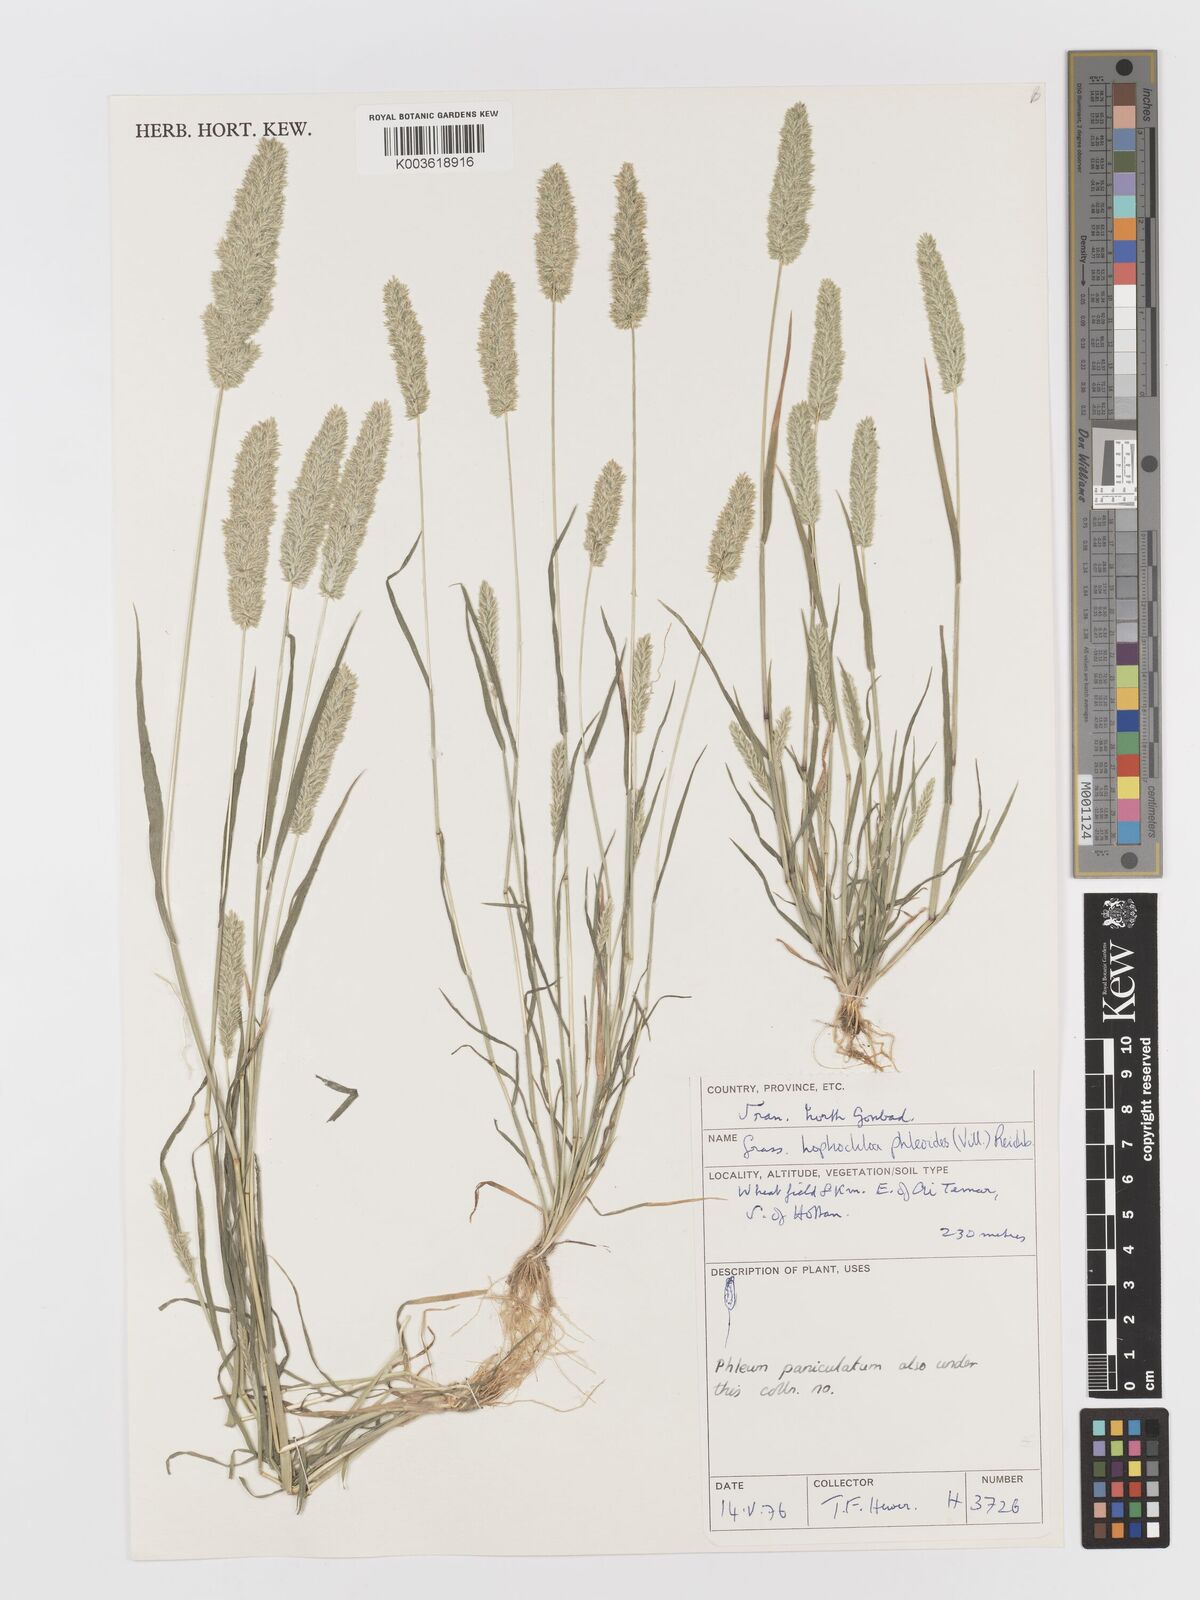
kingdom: Plantae
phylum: Tracheophyta
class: Liliopsida
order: Poales
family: Poaceae
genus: Rostraria
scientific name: Rostraria cristata
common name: Mediterranean hair-grass
